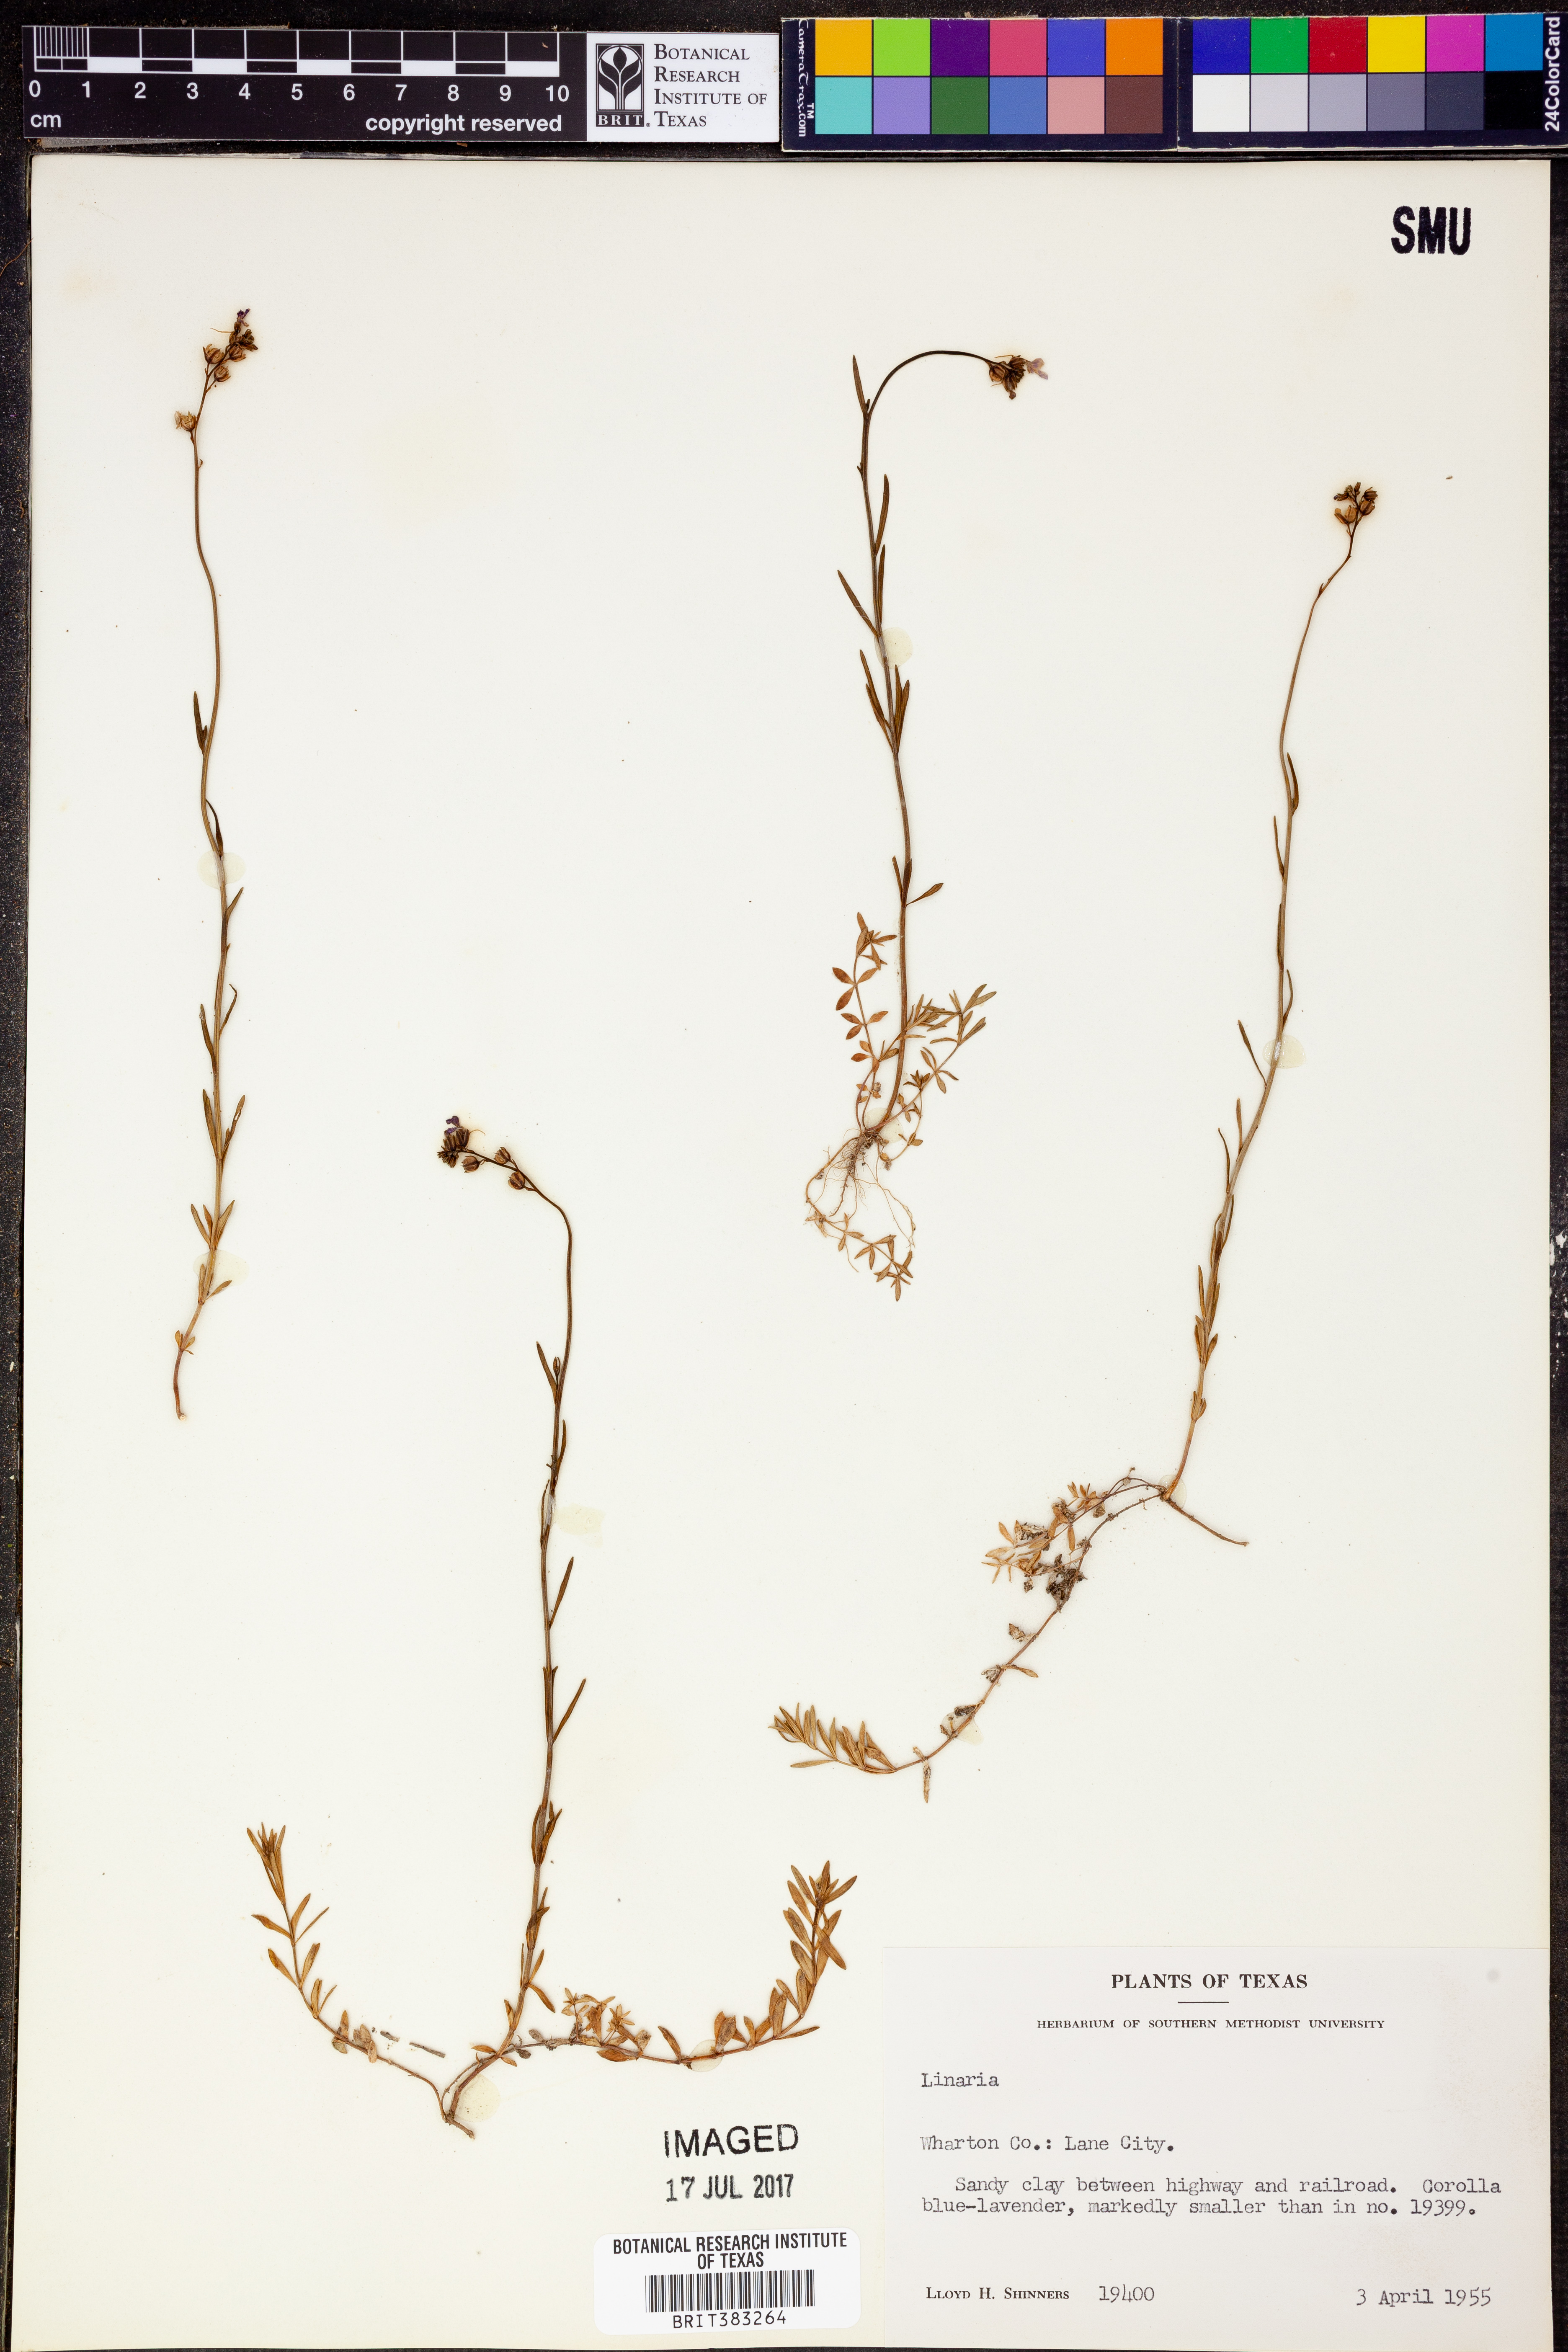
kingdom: Plantae
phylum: Tracheophyta
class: Magnoliopsida
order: Lamiales
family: Plantaginaceae
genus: Linaria
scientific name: Linaria
